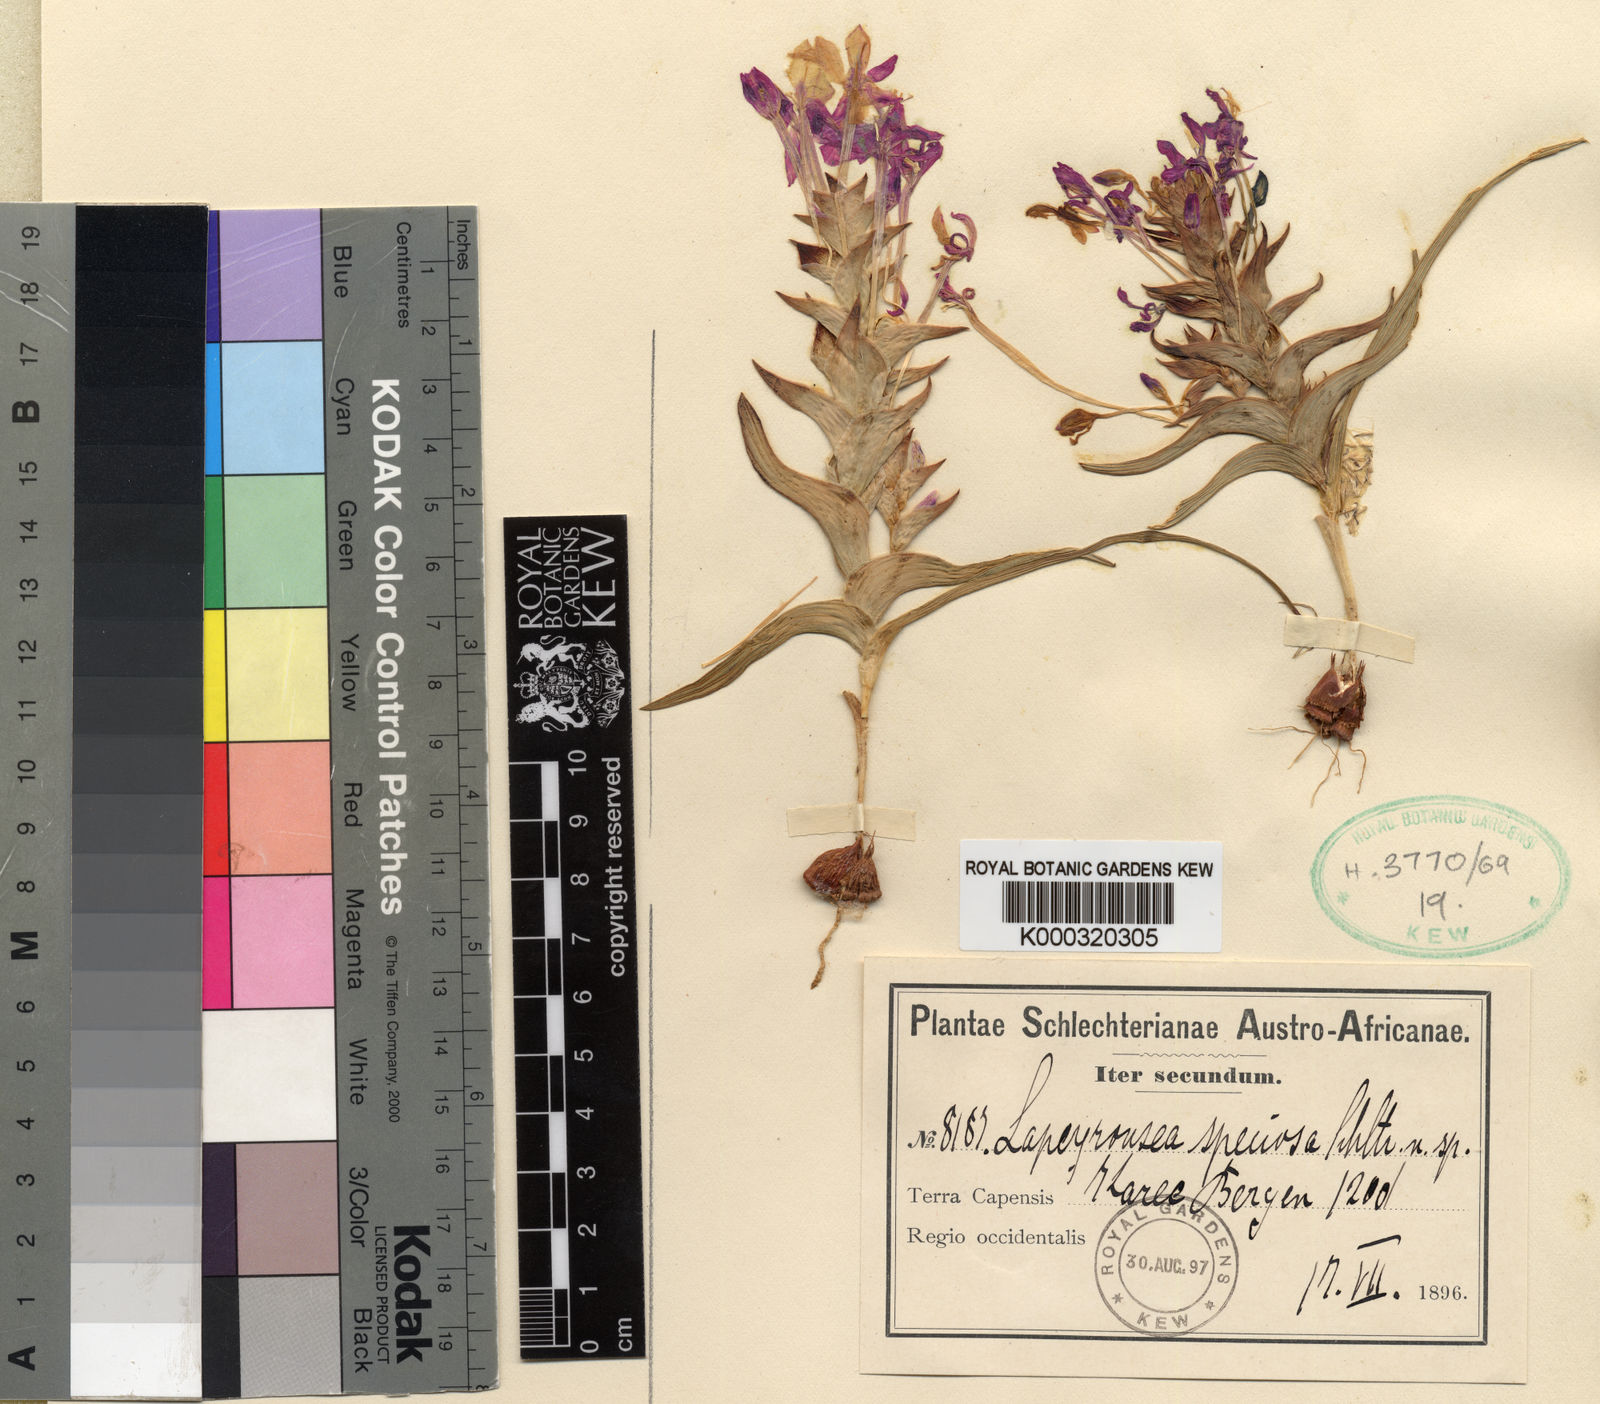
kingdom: Plantae
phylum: Tracheophyta
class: Liliopsida
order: Asparagales
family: Iridaceae
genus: Lapeirousia
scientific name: Lapeirousia silenoides
